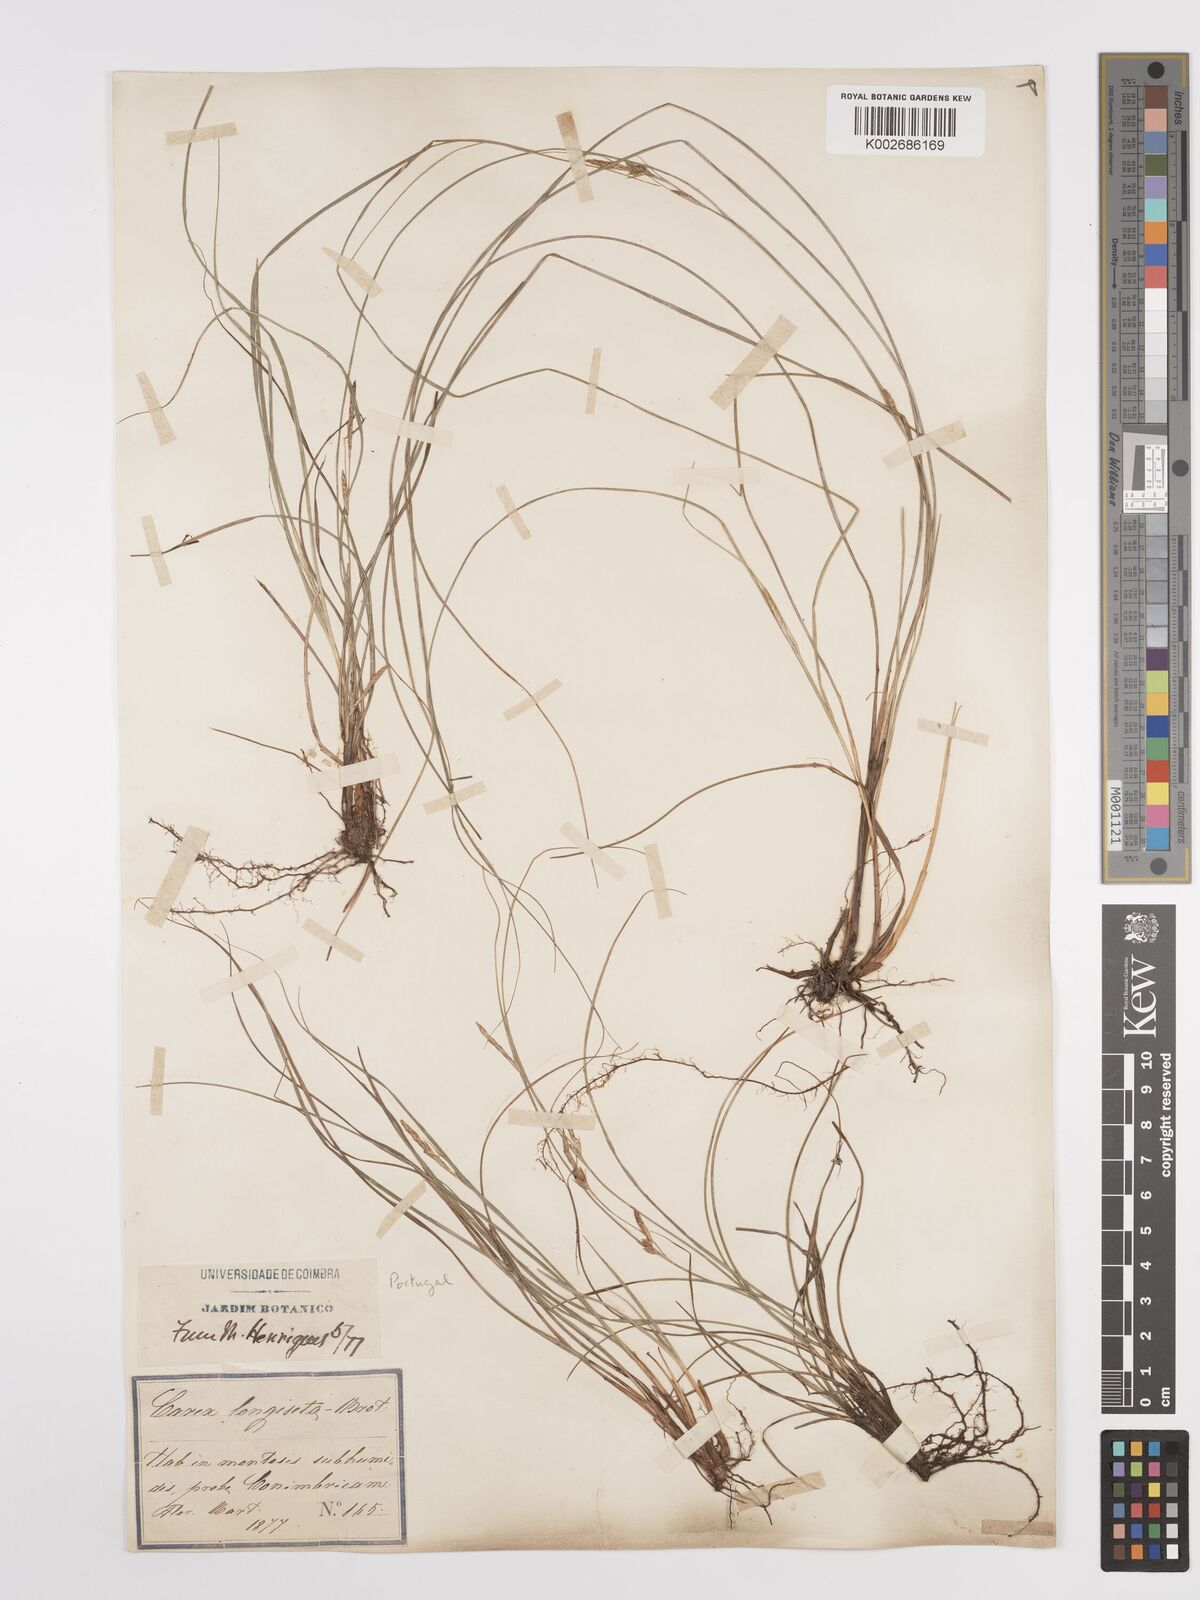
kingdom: Plantae
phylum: Tracheophyta
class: Liliopsida
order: Poales
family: Cyperaceae
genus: Carex
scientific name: Carex distachya
